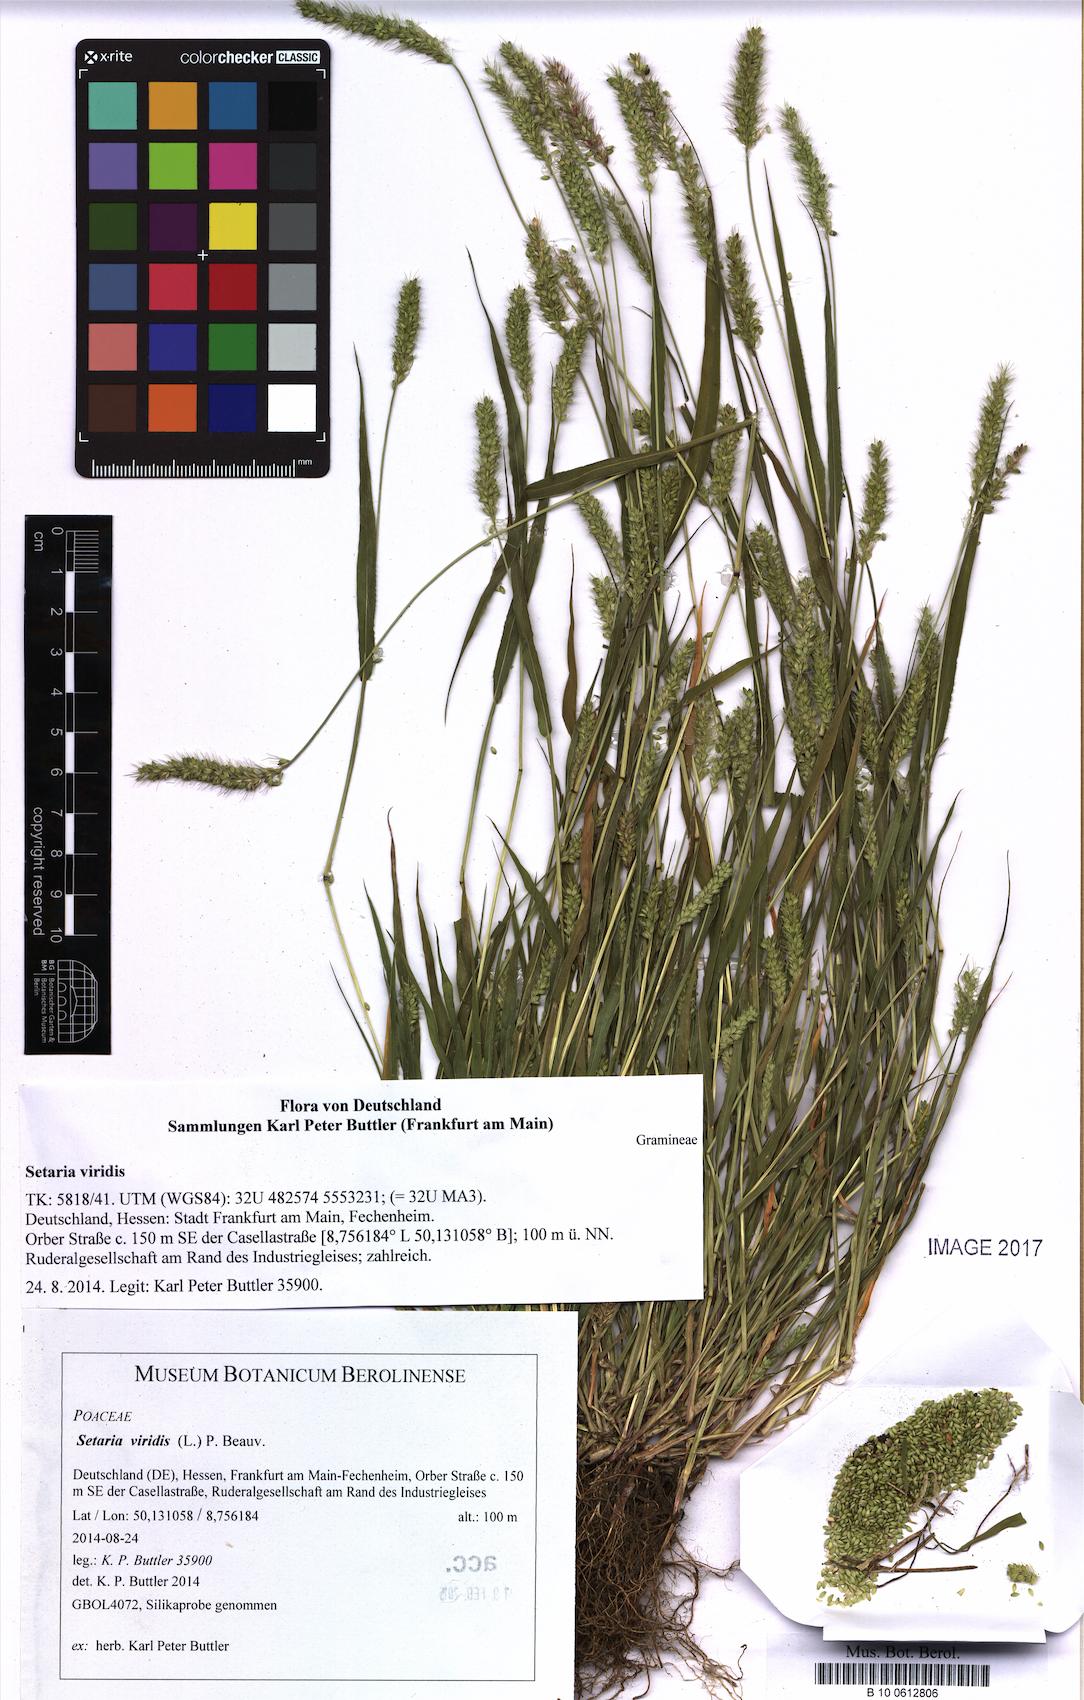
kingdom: Plantae
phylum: Tracheophyta
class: Liliopsida
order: Poales
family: Poaceae
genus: Setaria
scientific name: Setaria viridis
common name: Green bristlegrass
